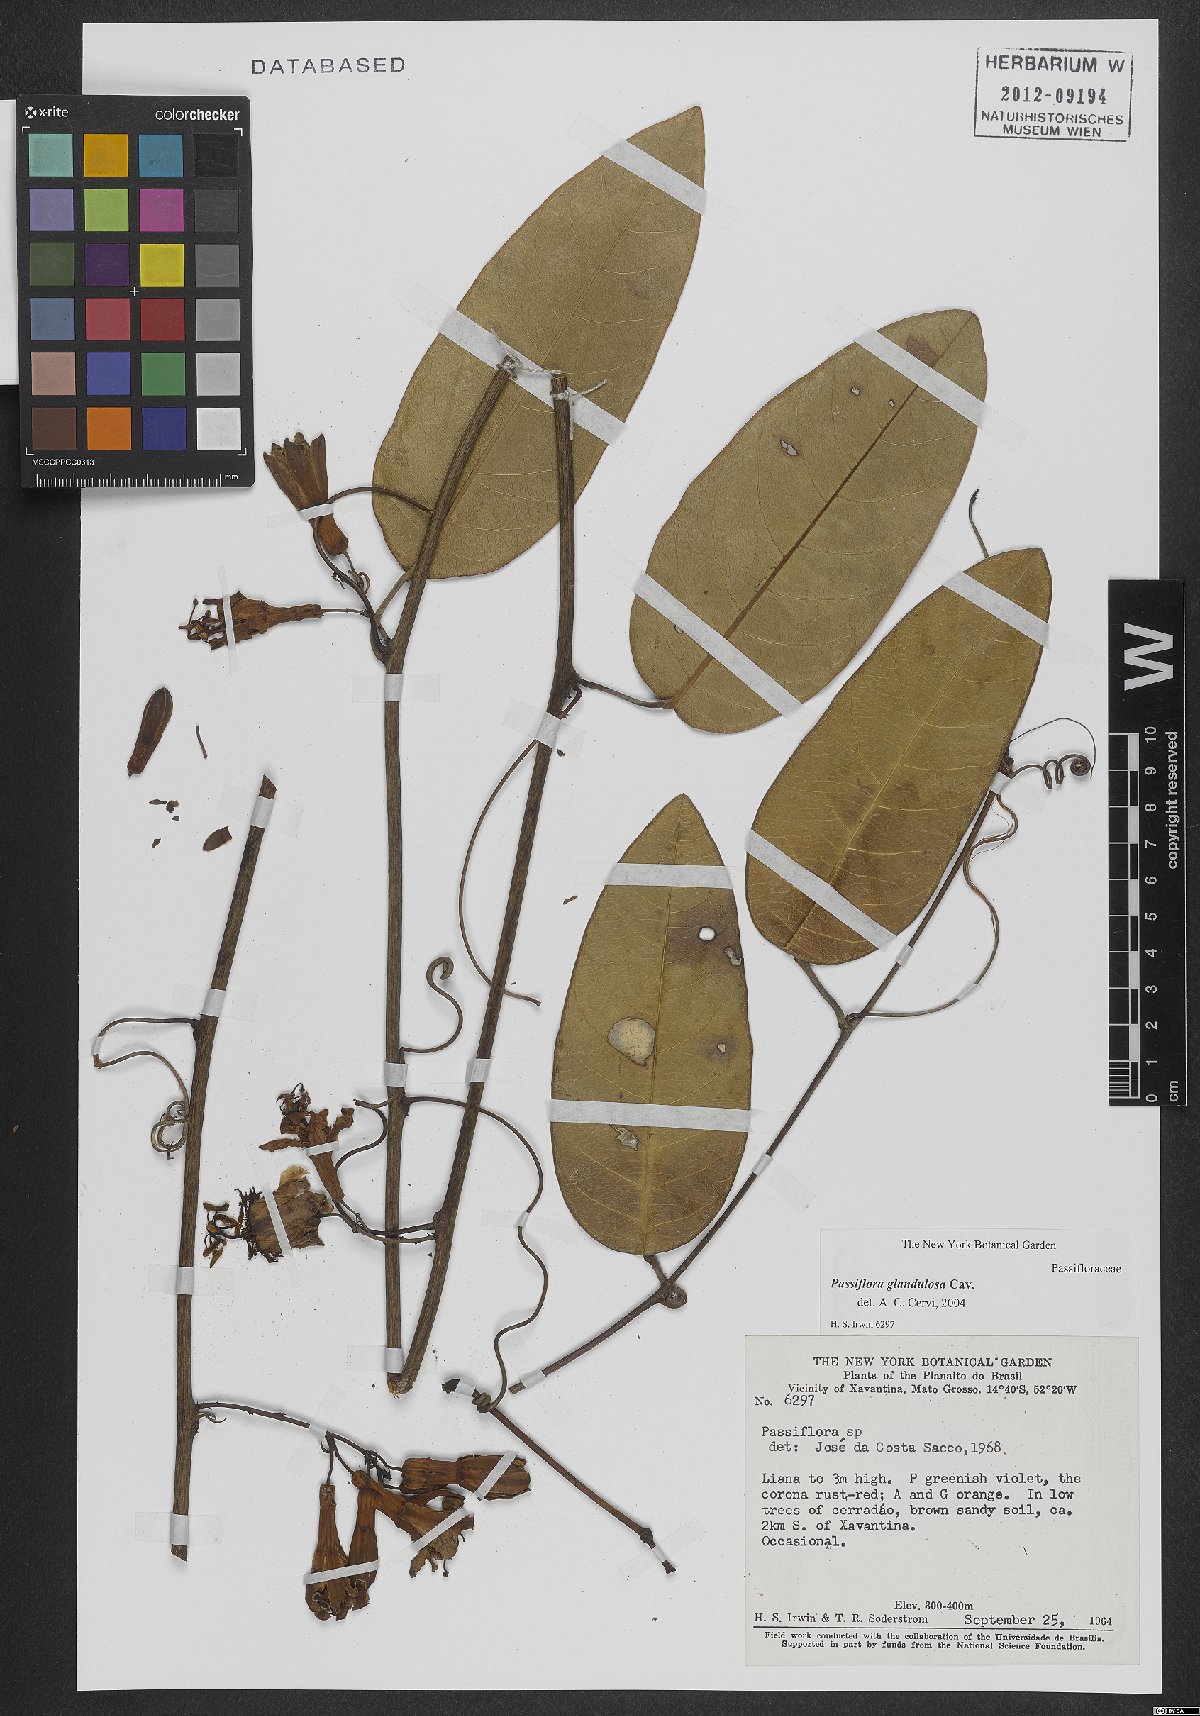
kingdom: Plantae
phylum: Tracheophyta
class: Magnoliopsida
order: Malpighiales
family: Passifloraceae
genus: Passiflora
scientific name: Passiflora glandulosa
